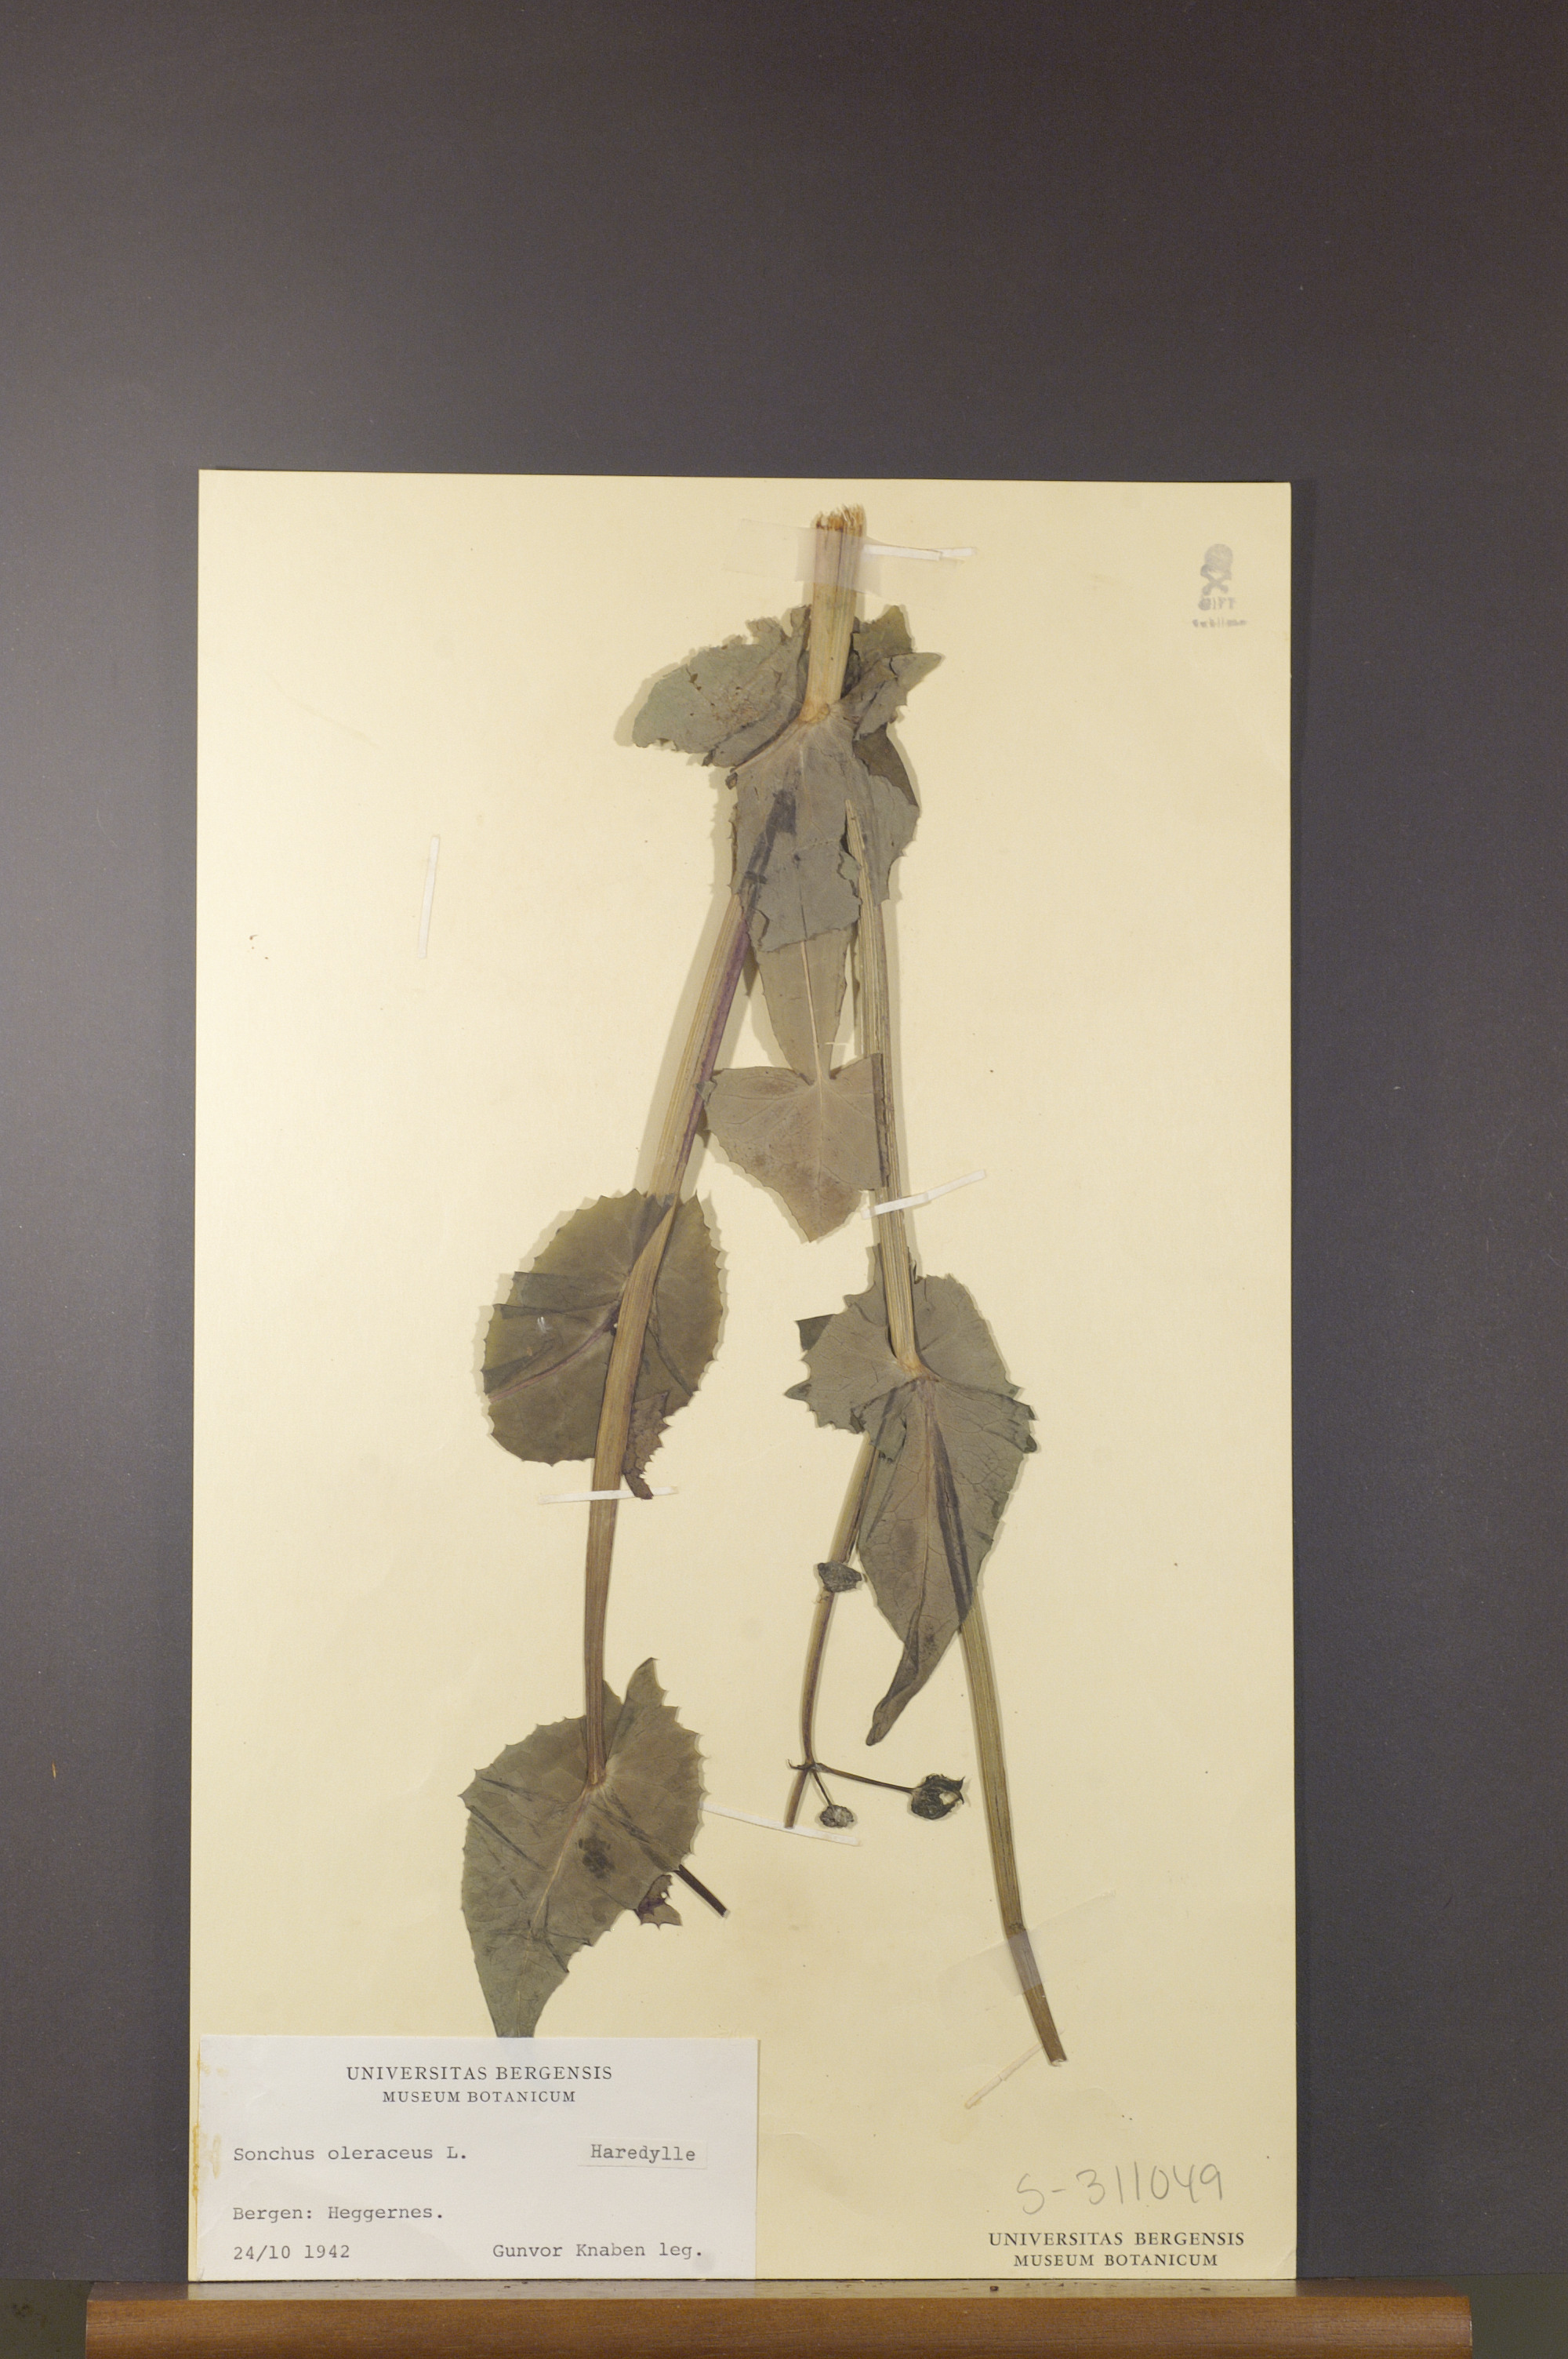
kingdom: Plantae
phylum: Tracheophyta
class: Magnoliopsida
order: Asterales
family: Asteraceae
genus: Sonchus
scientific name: Sonchus oleraceus
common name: Common sowthistle
